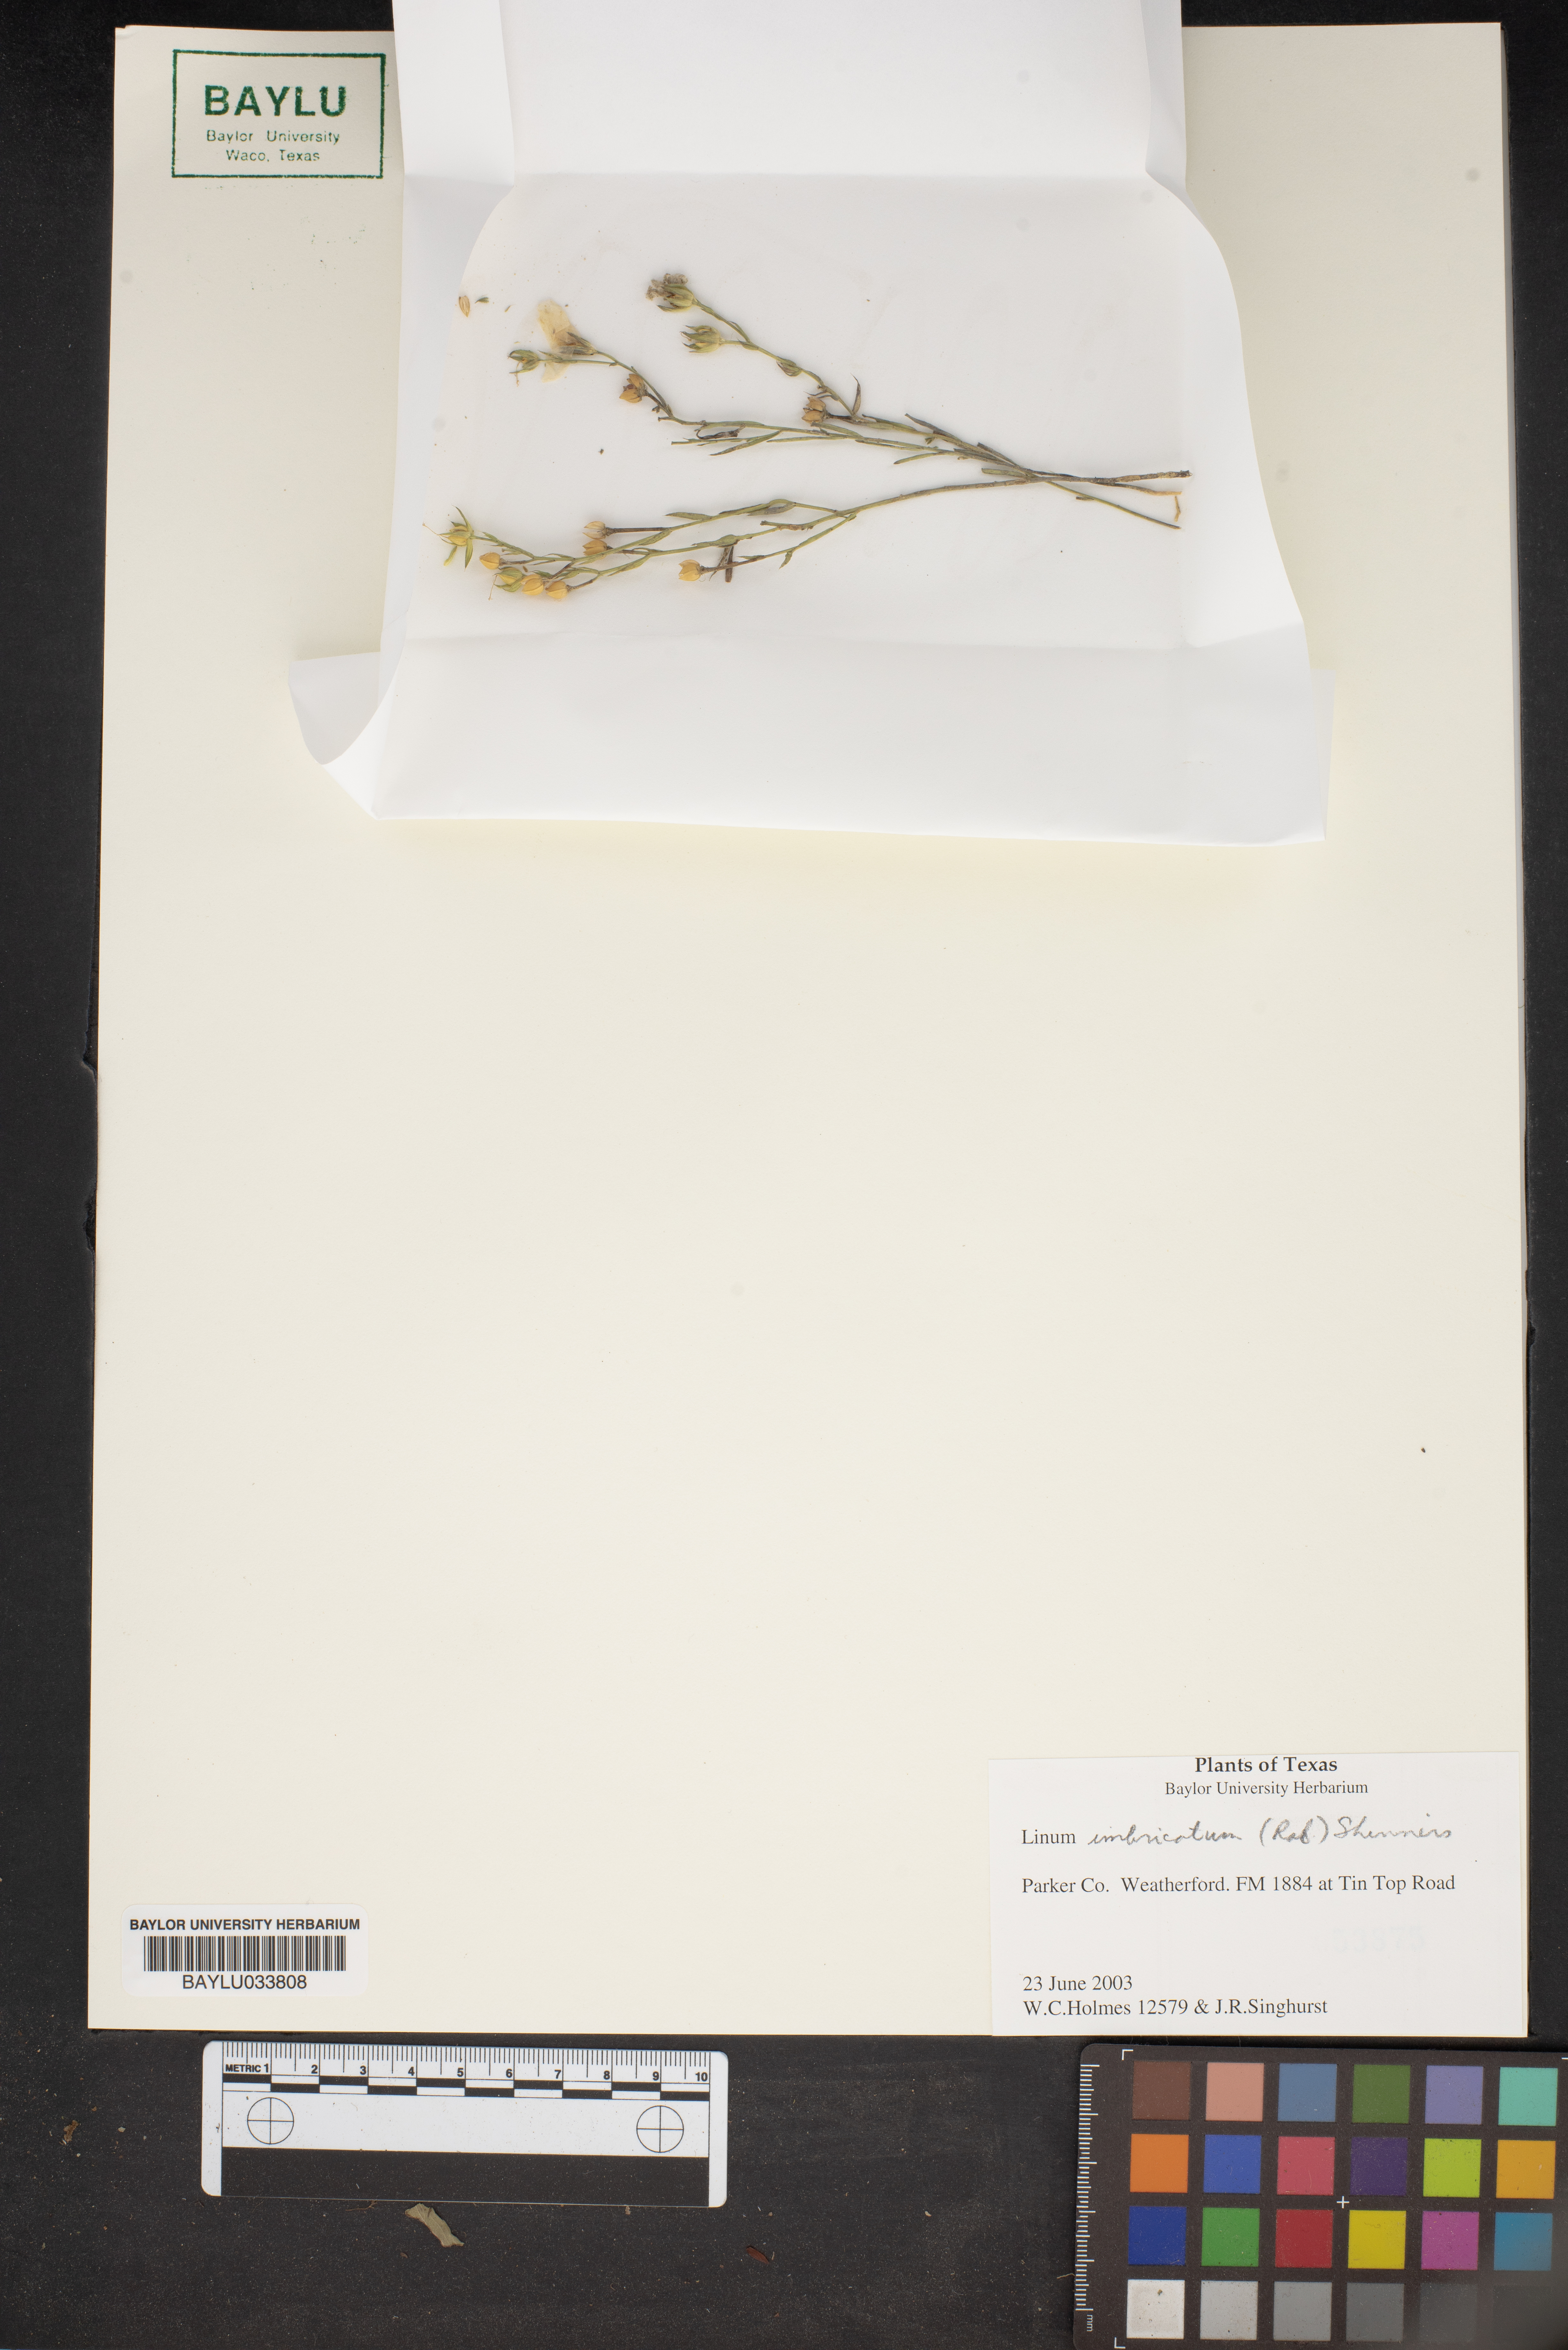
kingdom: Plantae
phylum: Tracheophyta
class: Magnoliopsida
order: Malpighiales
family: Linaceae
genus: Linum
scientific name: Linum imbricatum
